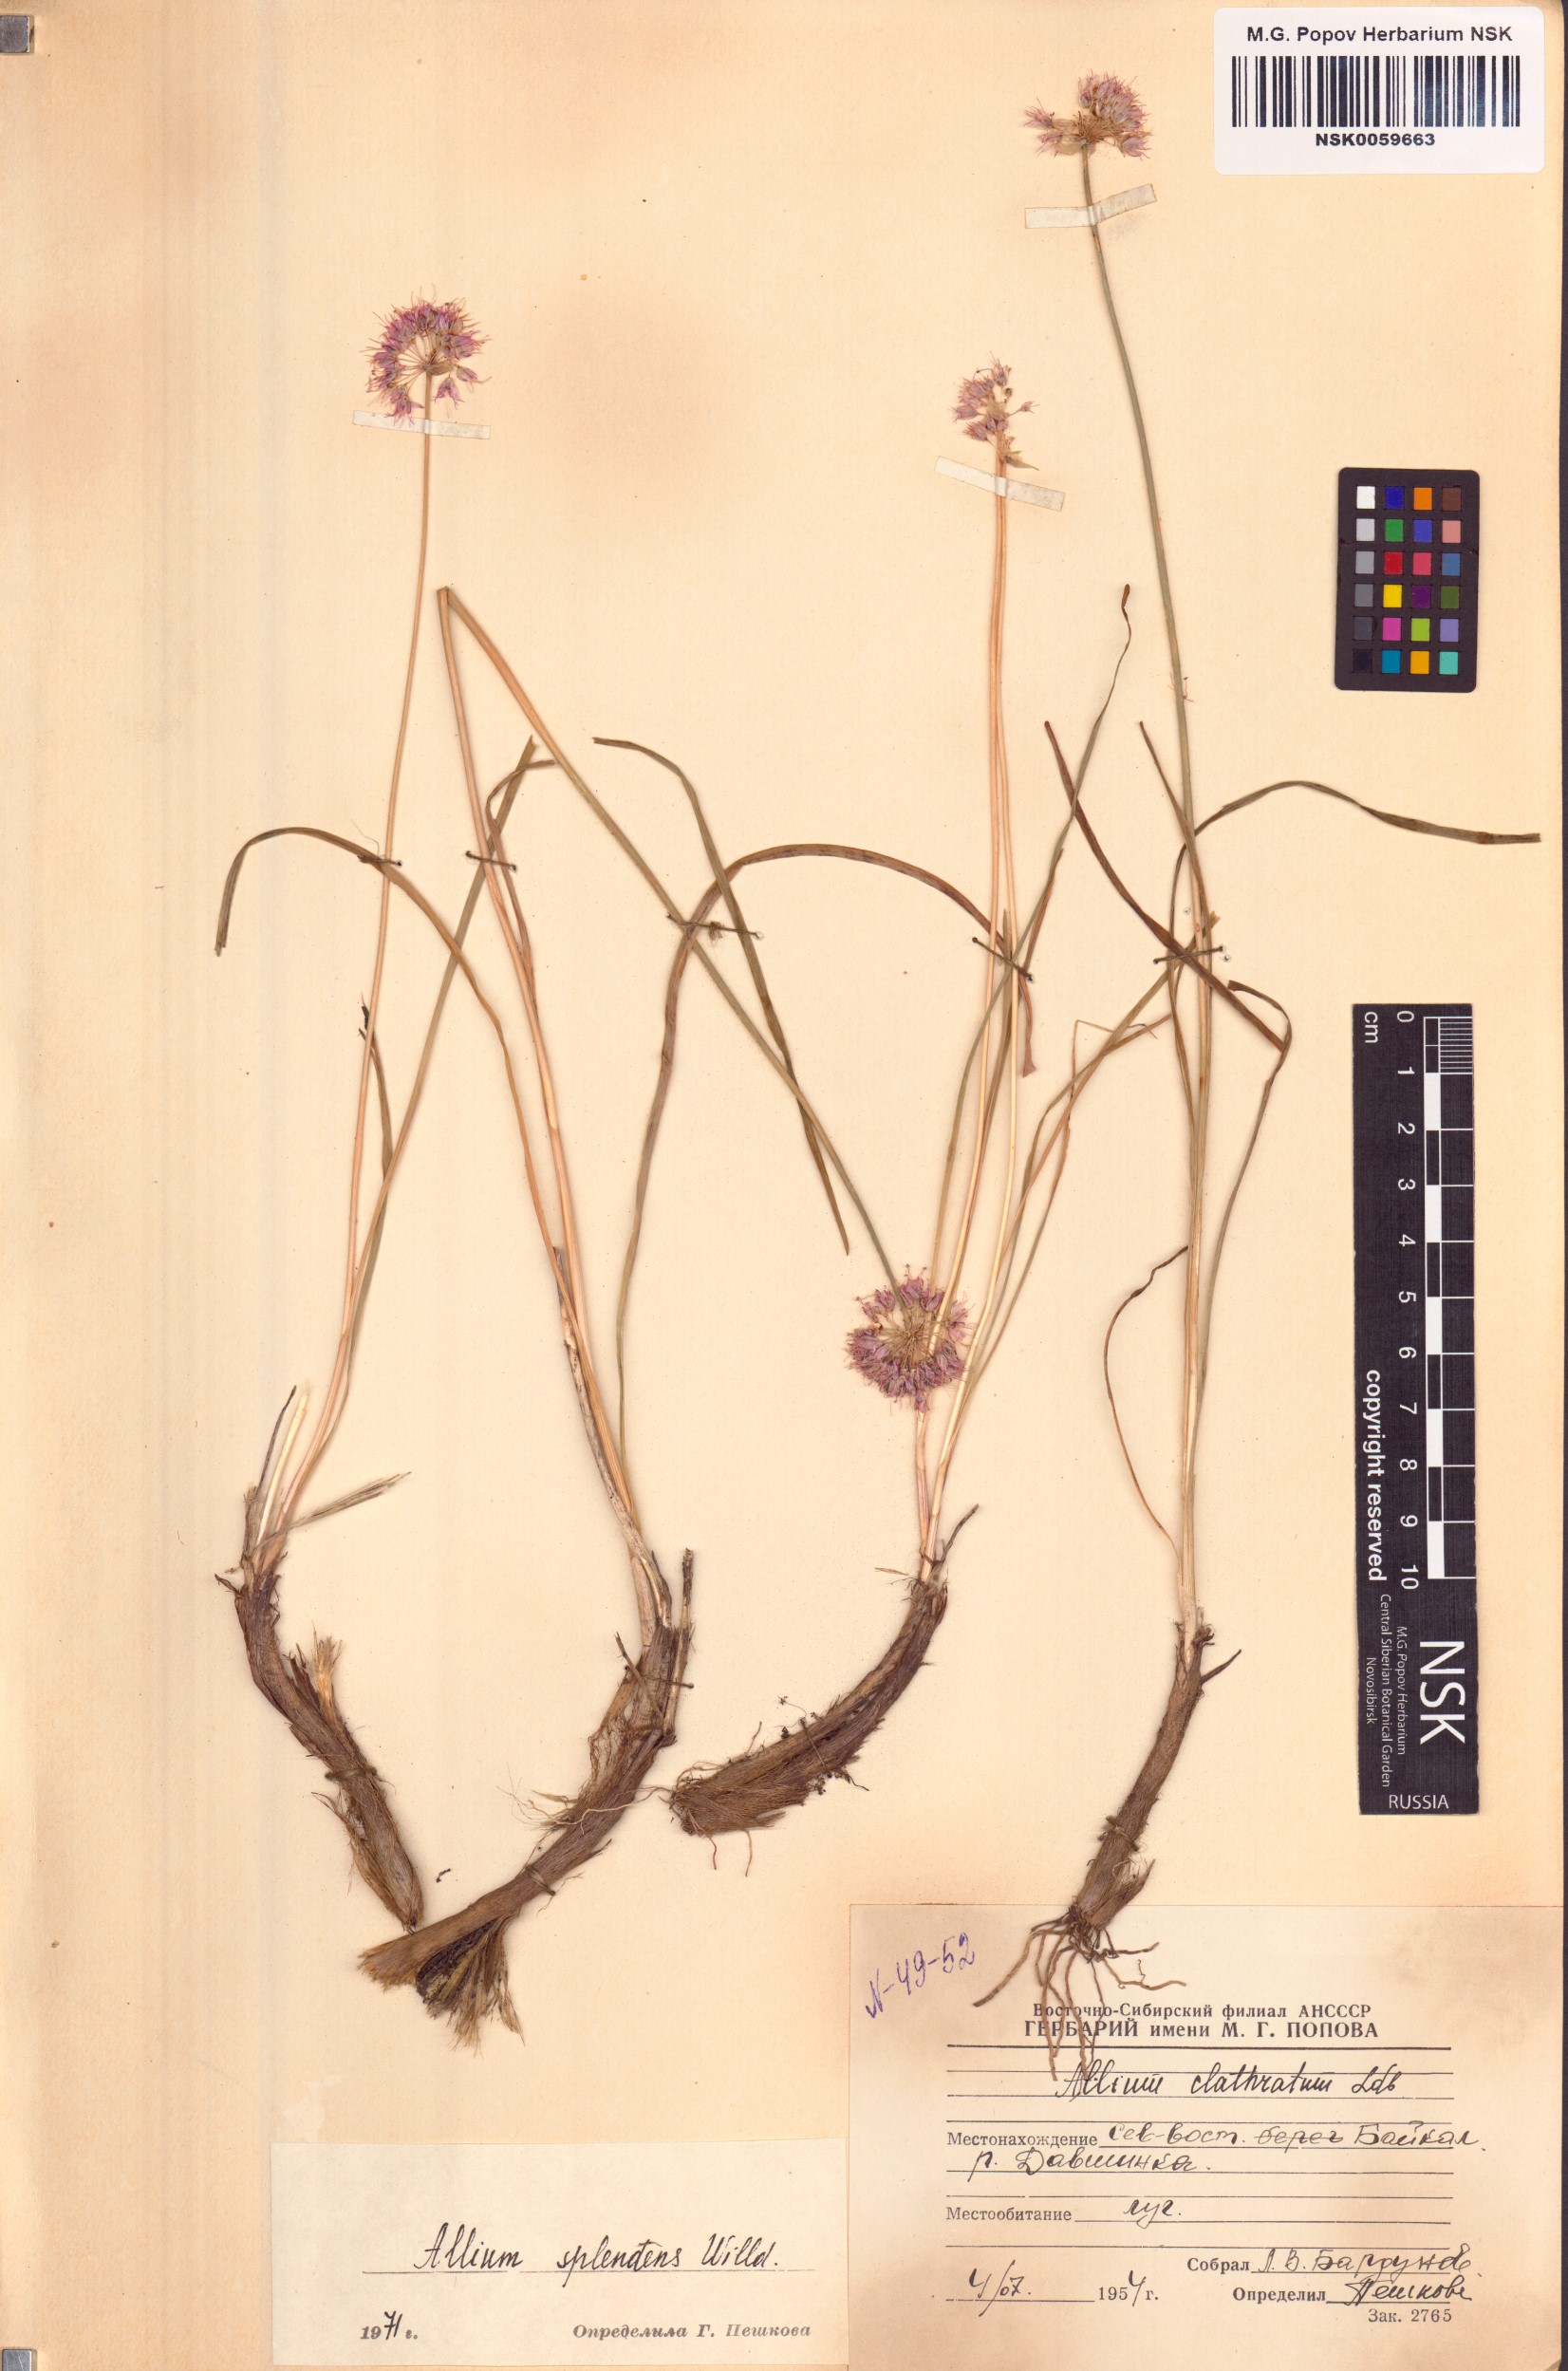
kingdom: Plantae
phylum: Tracheophyta
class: Liliopsida
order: Asparagales
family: Amaryllidaceae
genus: Allium
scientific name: Allium splendens
